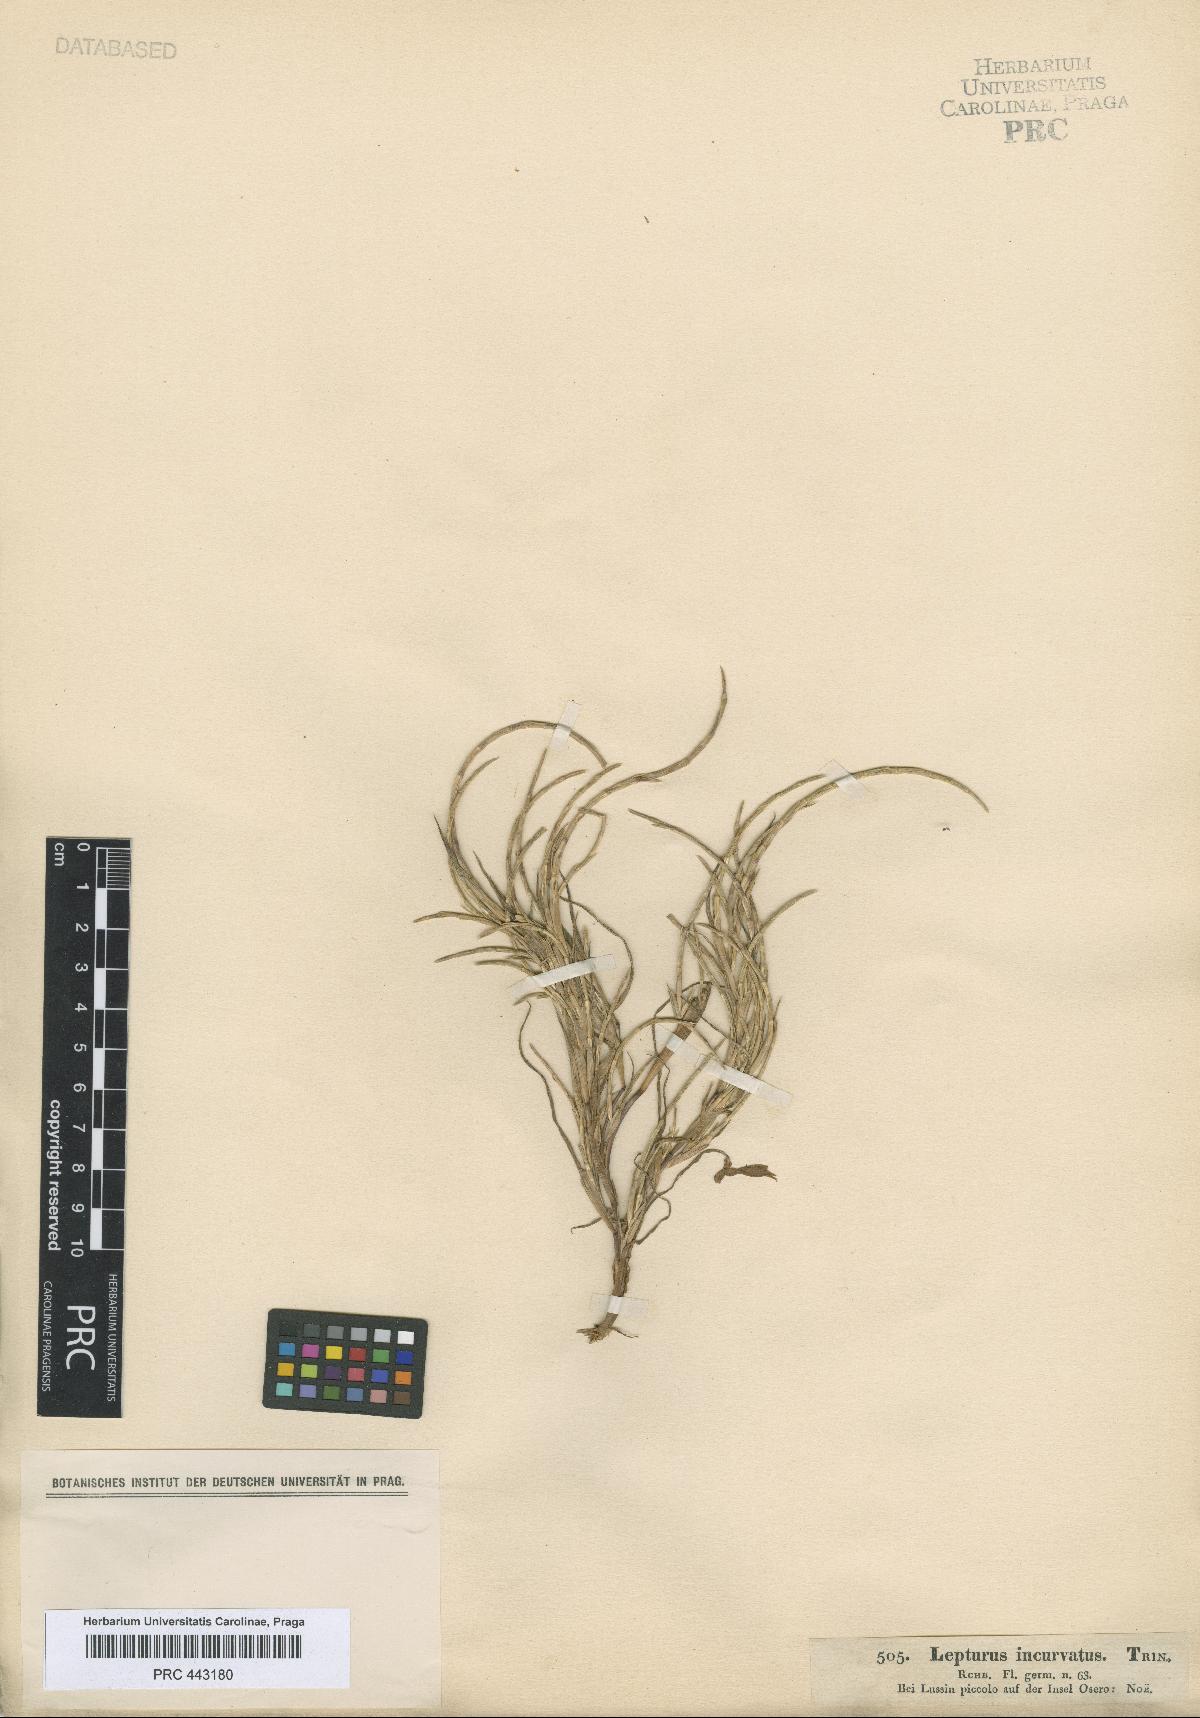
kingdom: Plantae
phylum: Tracheophyta
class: Liliopsida
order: Poales
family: Poaceae
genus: Parapholis
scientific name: Parapholis incurva
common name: Curved sicklegrass
